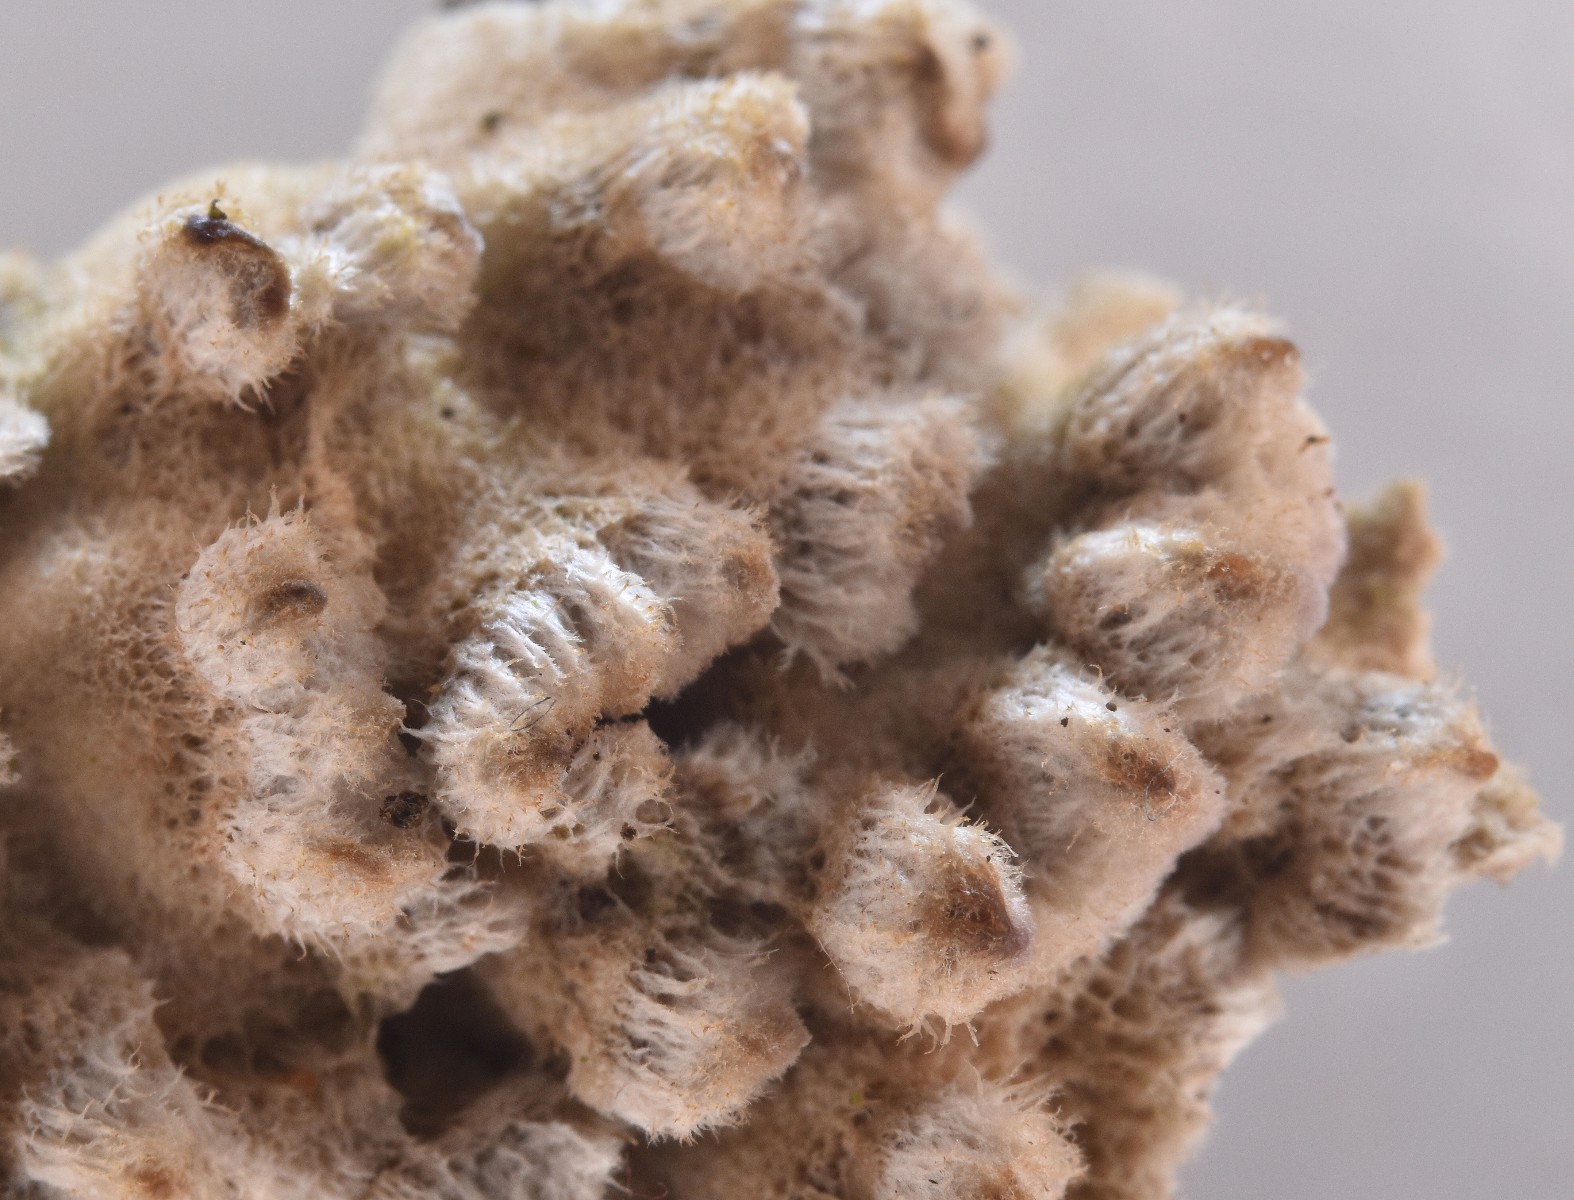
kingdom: Fungi
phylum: Basidiomycota
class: Agaricomycetes
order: Polyporales
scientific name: Polyporales
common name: poresvampordenen
